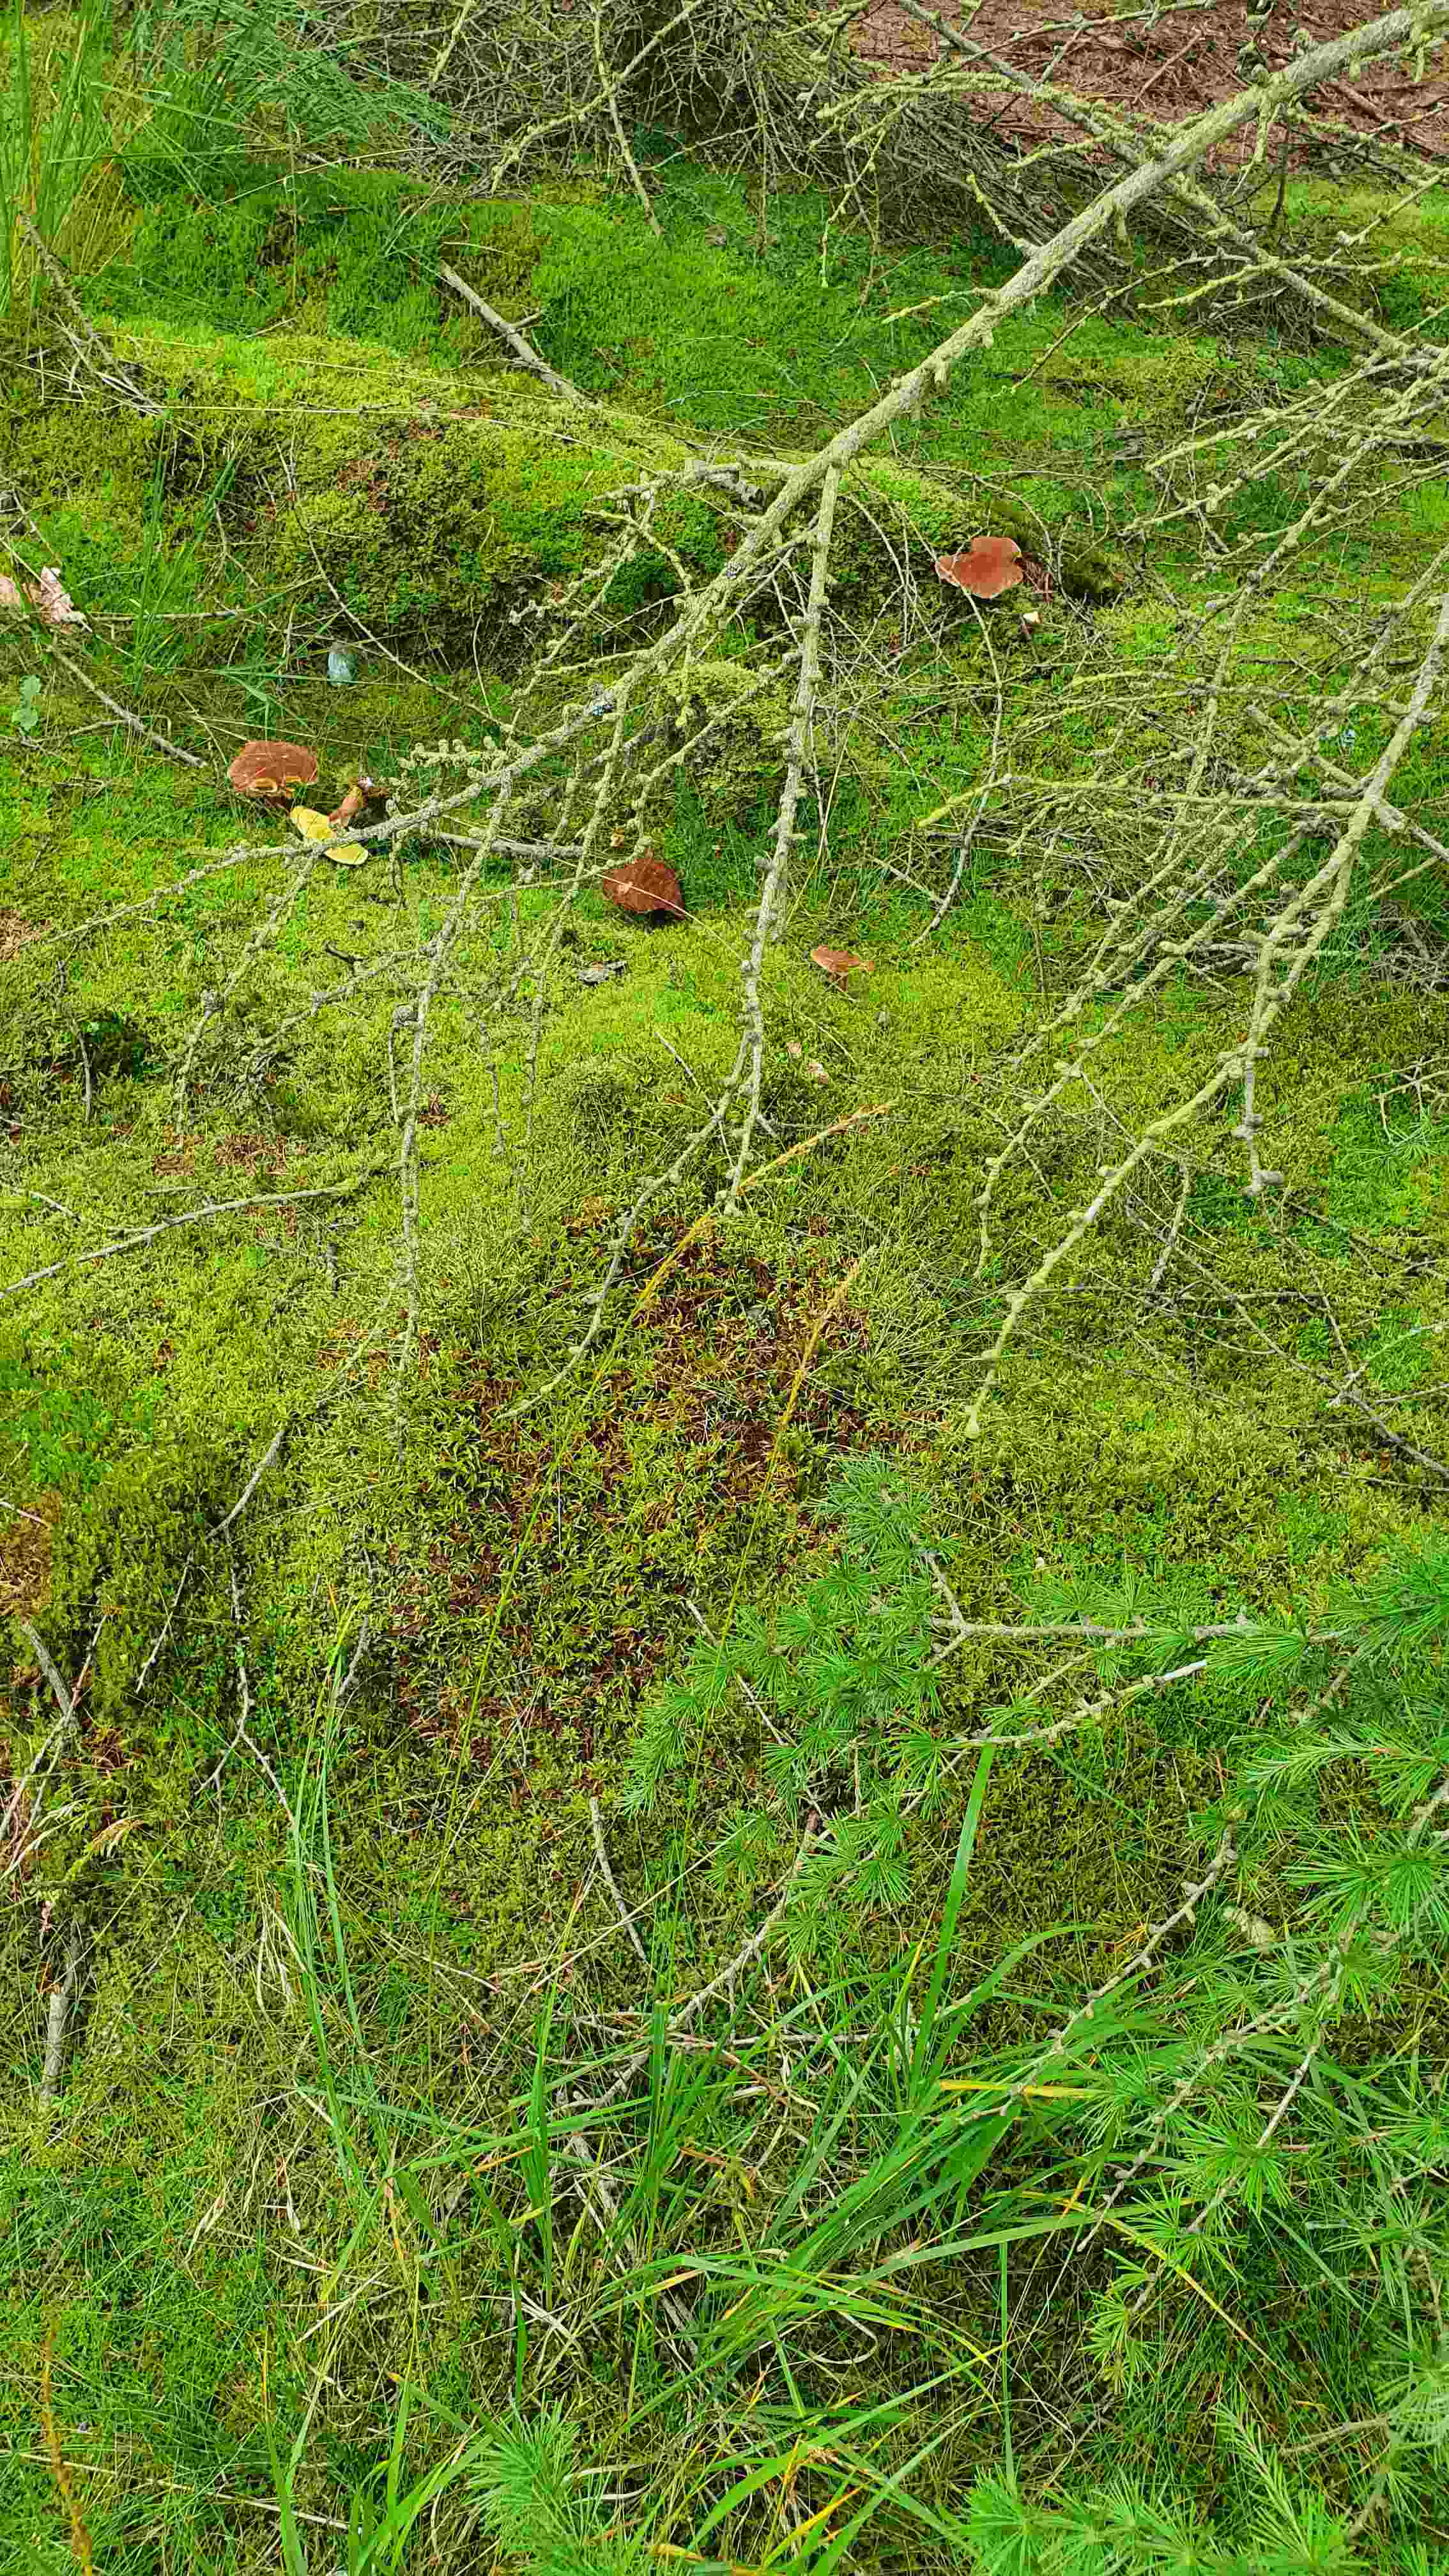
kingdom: Fungi
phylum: Basidiomycota
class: Agaricomycetes
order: Boletales
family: Suillaceae
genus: Suillus
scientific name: Suillus cavipes
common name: hulstokket slimrørhat
